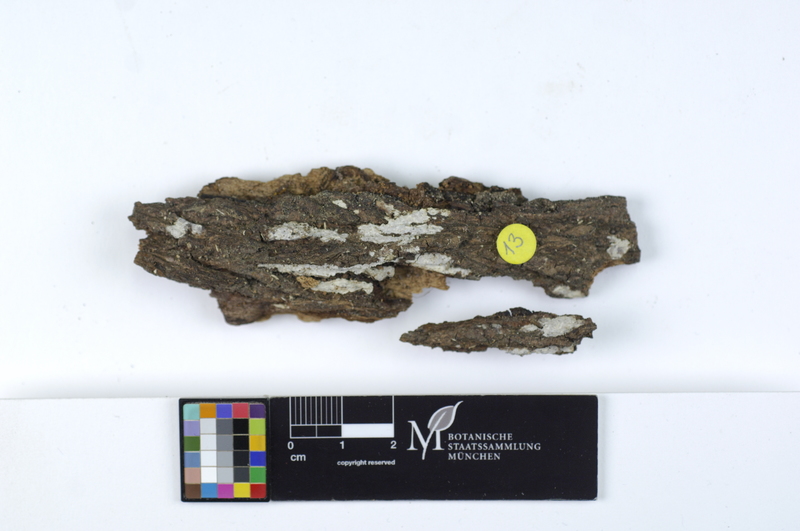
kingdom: Plantae
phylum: Tracheophyta
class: Magnoliopsida
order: Lamiales
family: Oleaceae
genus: Fraxinus
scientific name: Fraxinus
